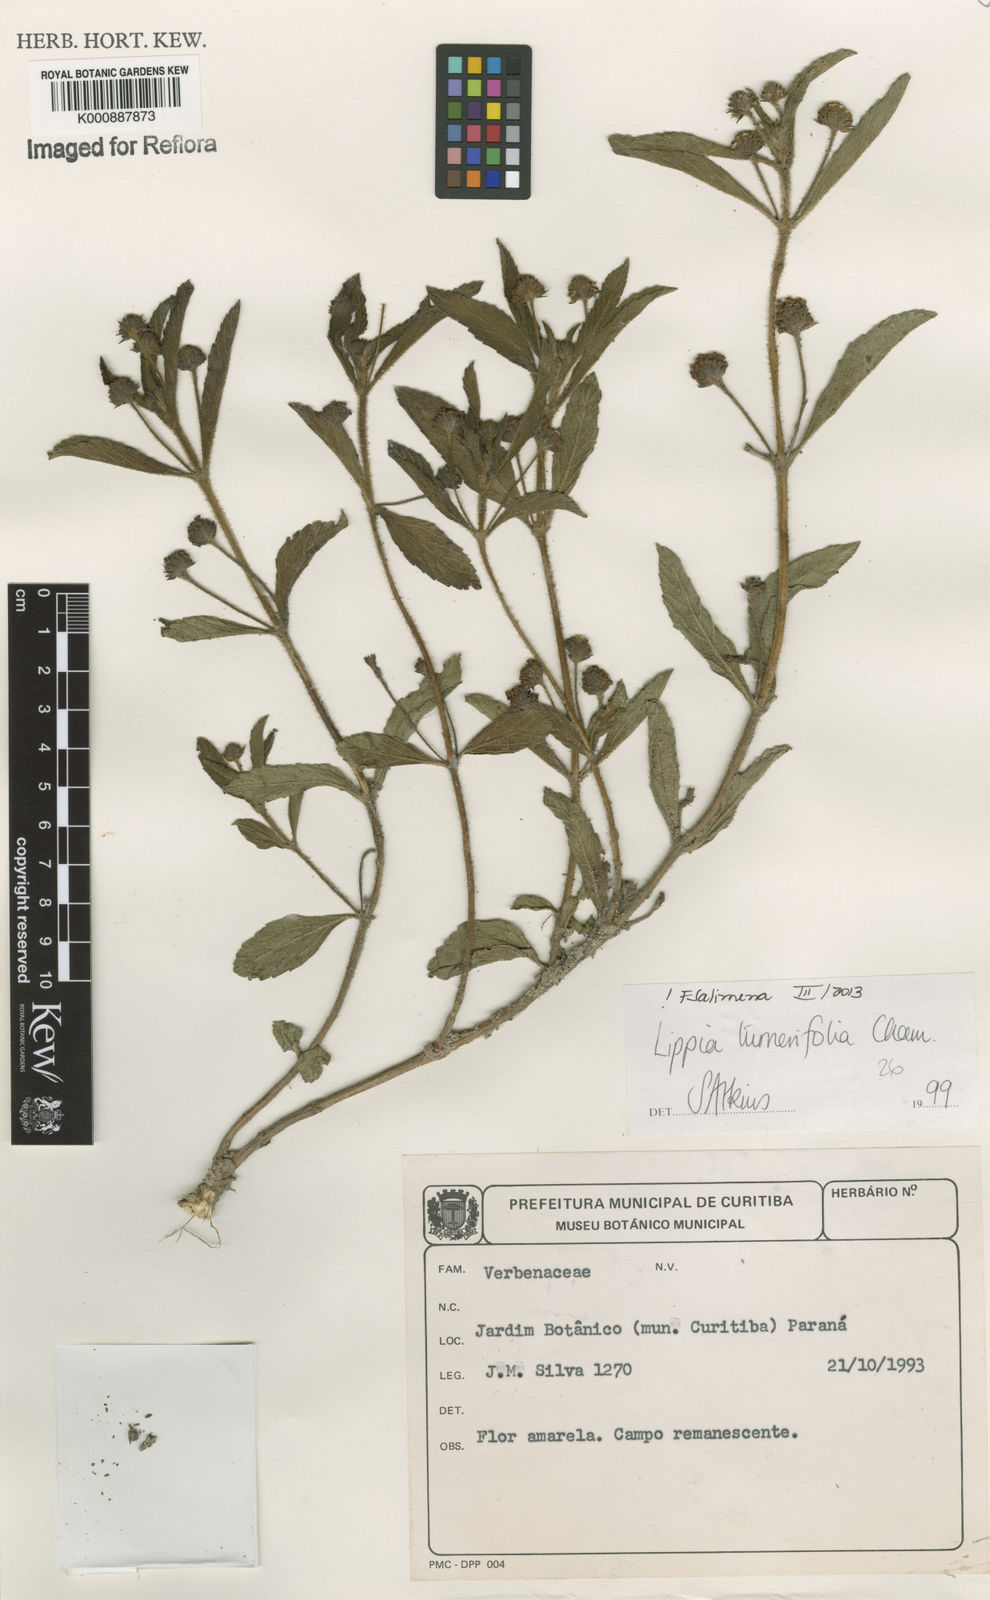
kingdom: Plantae
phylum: Tracheophyta
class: Magnoliopsida
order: Lamiales
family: Verbenaceae
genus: Lippia
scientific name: Lippia turnerifolia
